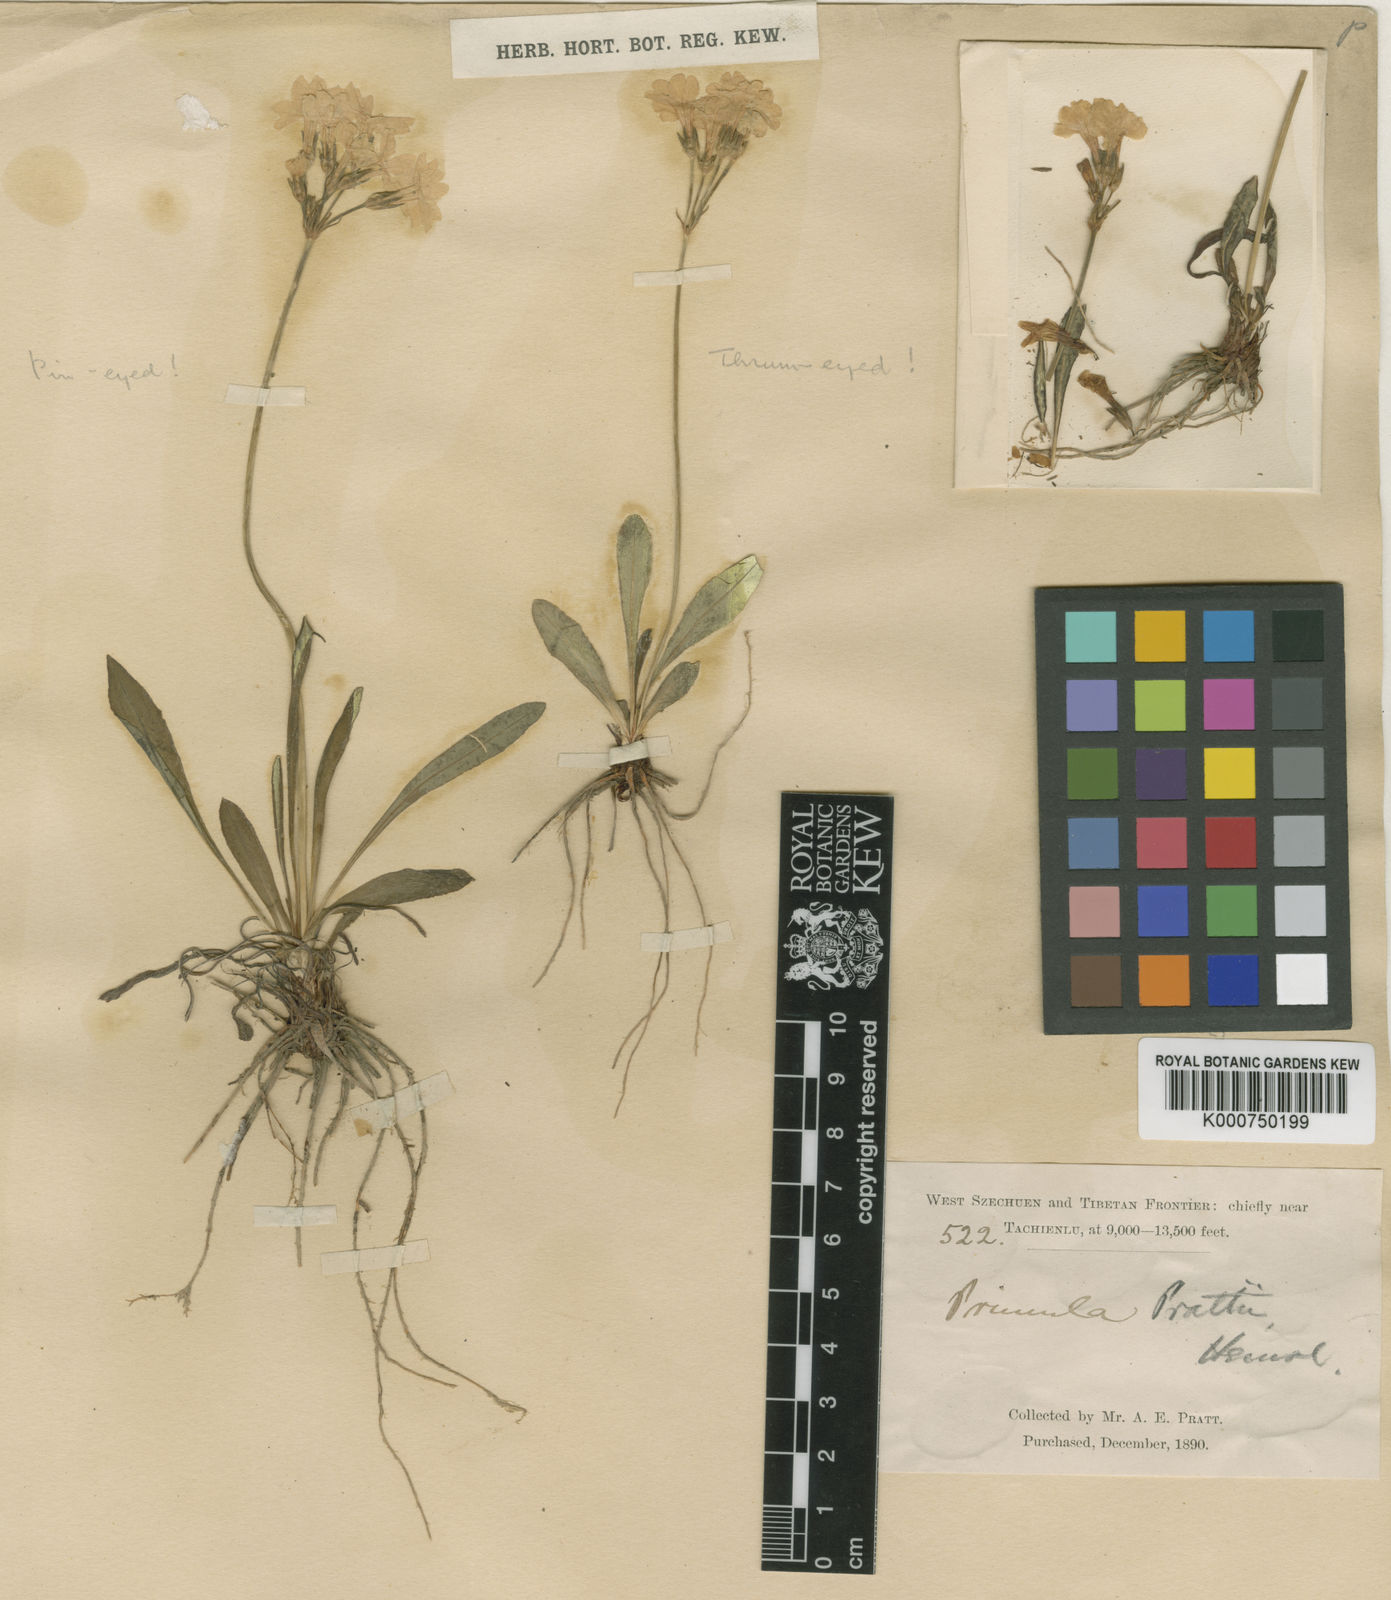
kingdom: Plantae
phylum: Tracheophyta
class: Magnoliopsida
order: Ericales
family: Primulaceae
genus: Primula
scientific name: Primula pulchella
